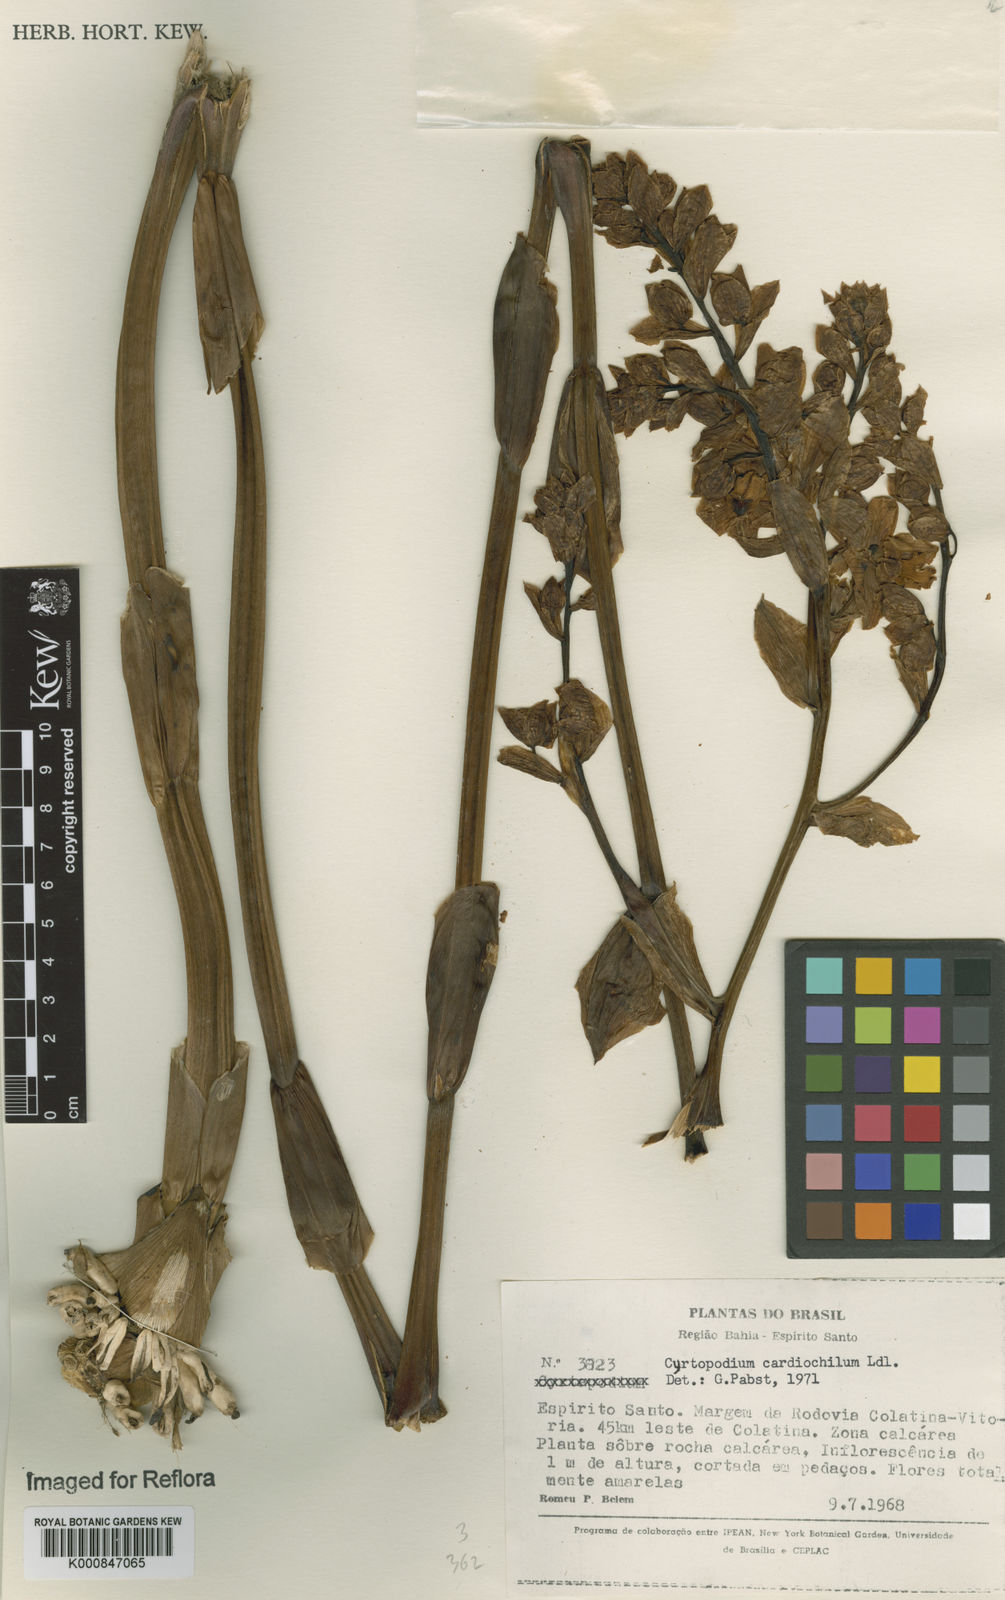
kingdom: Plantae
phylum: Tracheophyta
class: Liliopsida
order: Asparagales
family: Orchidaceae
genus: Cyrtopodium
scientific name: Cyrtopodium andersonii
